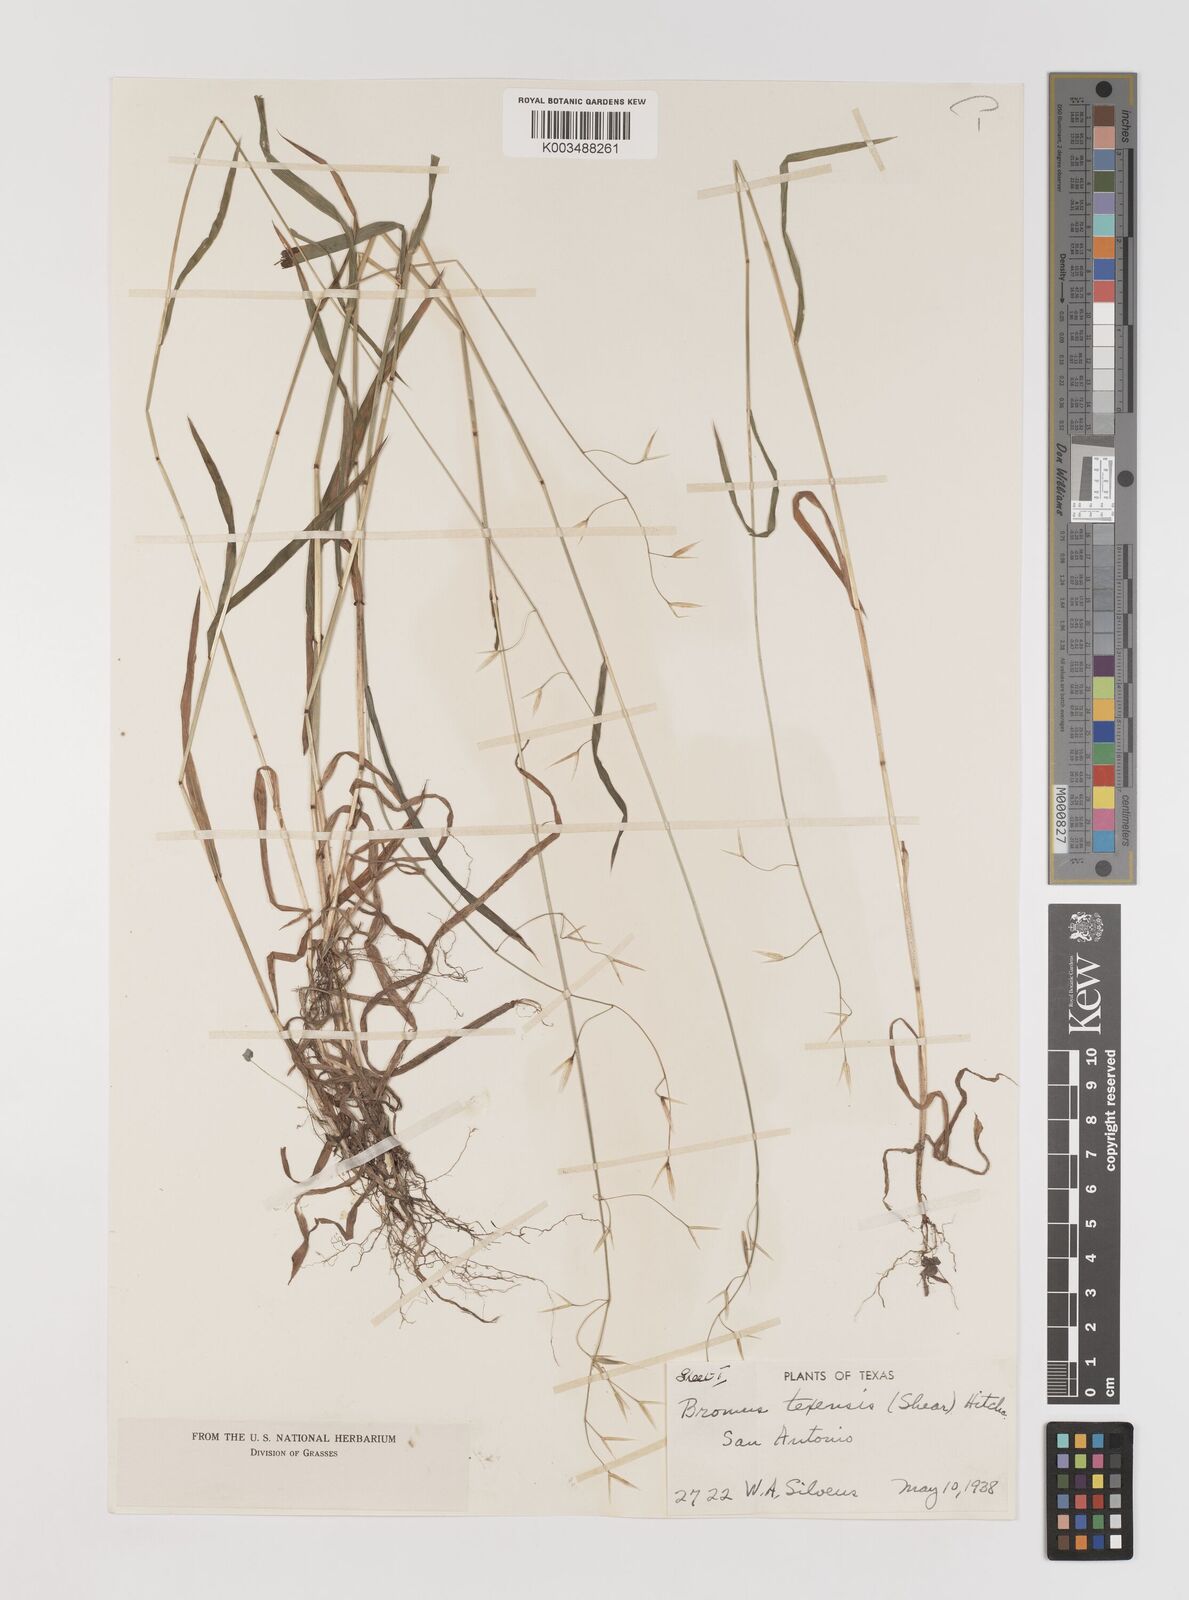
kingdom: Plantae
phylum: Tracheophyta
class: Liliopsida
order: Poales
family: Poaceae
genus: Bromus
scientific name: Bromus texensis
